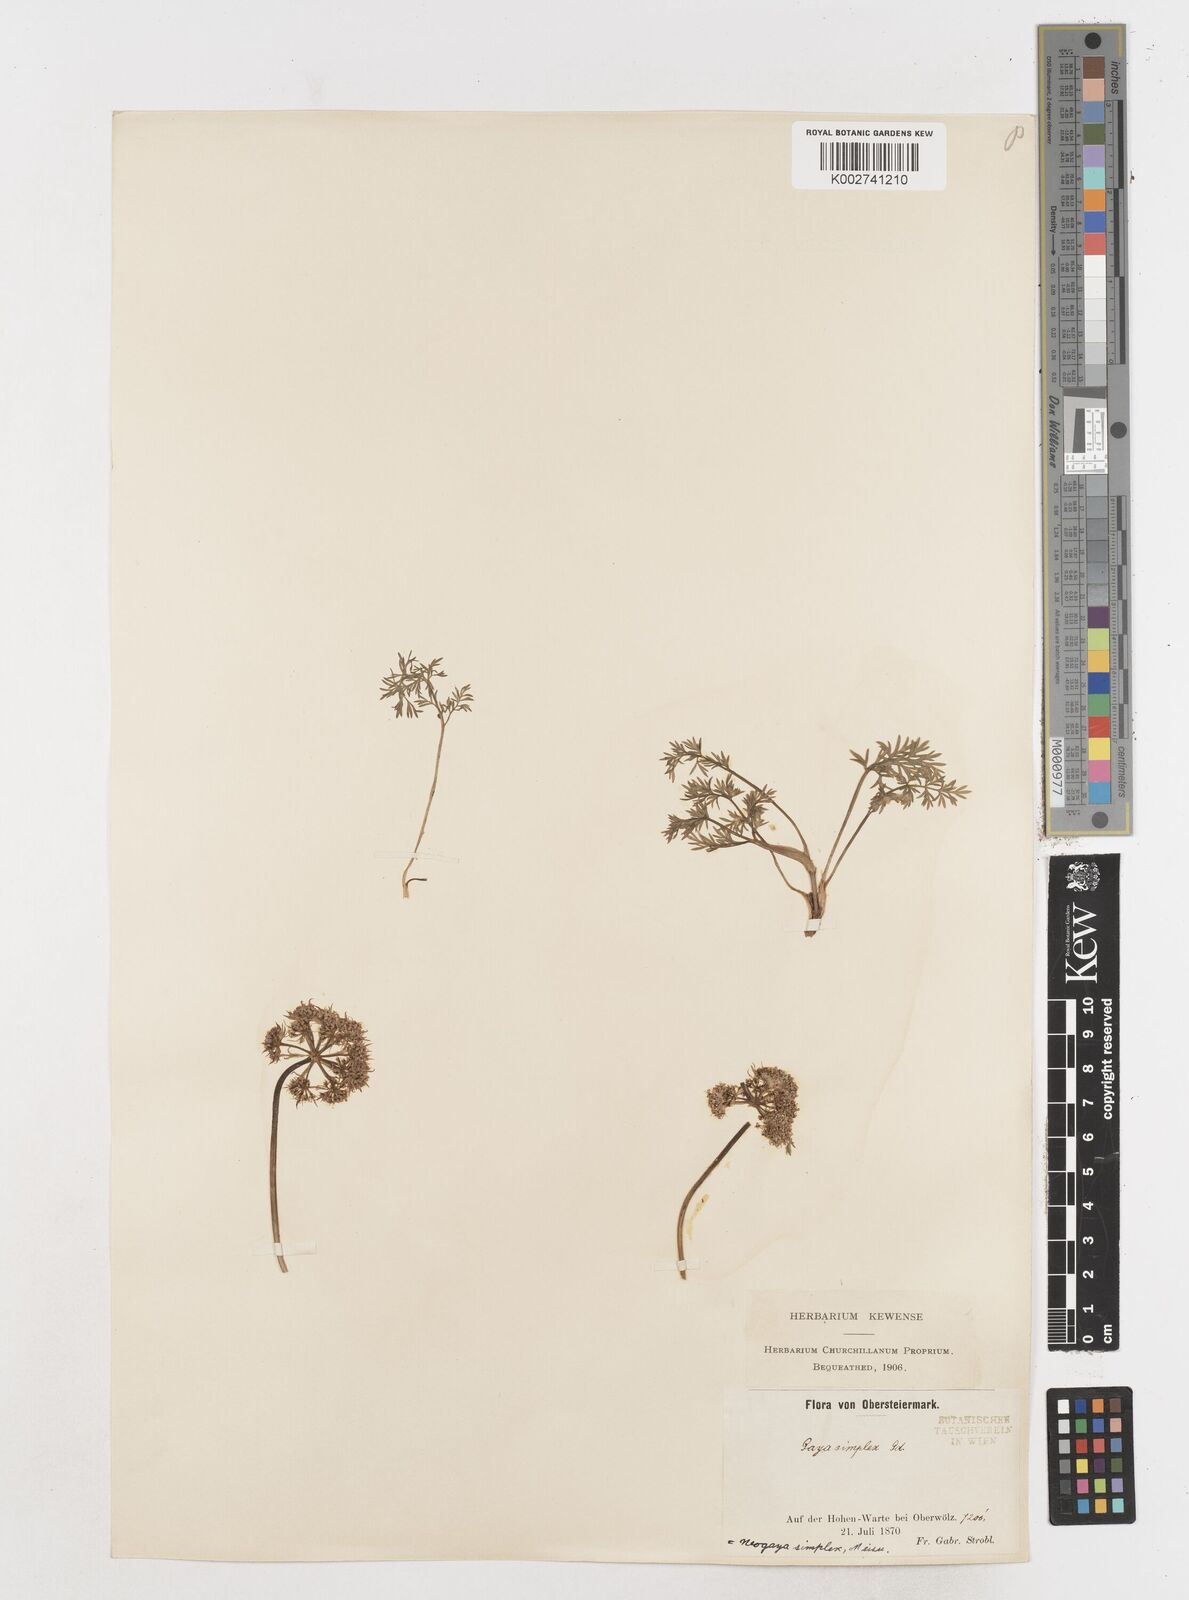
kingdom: Plantae
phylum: Tracheophyta
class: Magnoliopsida
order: Apiales
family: Apiaceae
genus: Pachypleurum
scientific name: Pachypleurum mutellinoides
